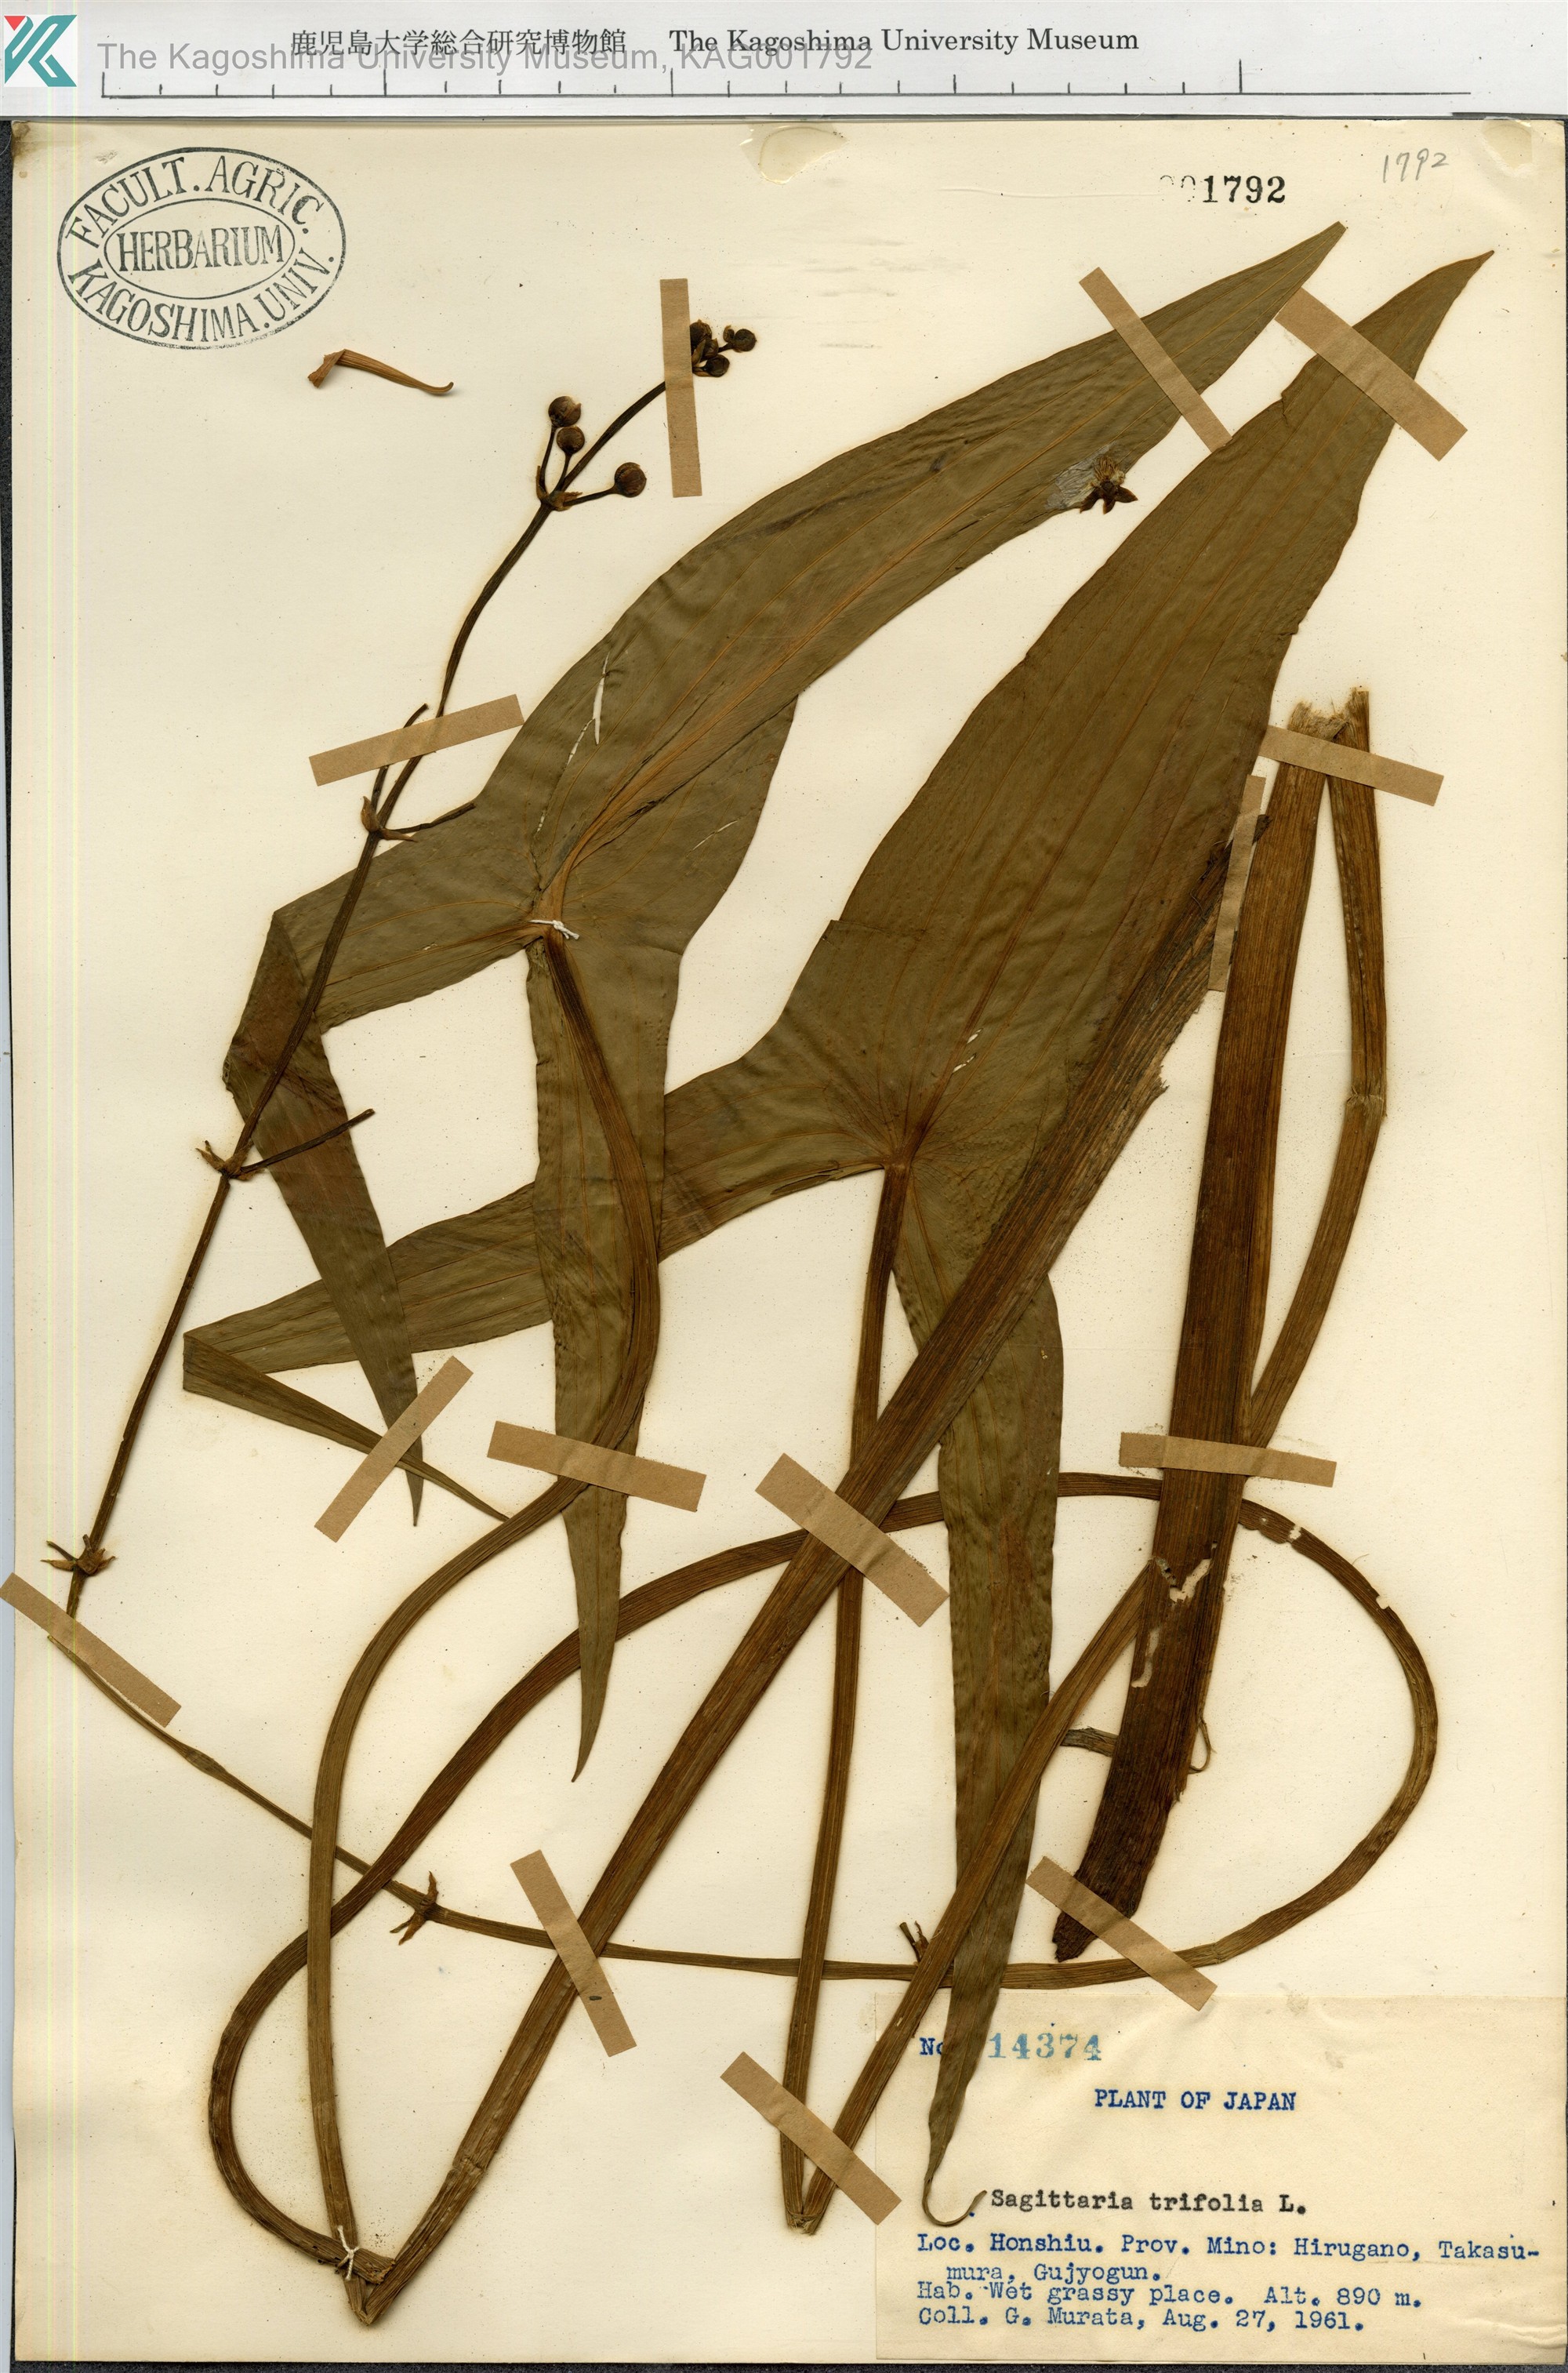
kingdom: Plantae
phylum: Tracheophyta
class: Liliopsida
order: Alismatales
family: Alismataceae
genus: Sagittaria
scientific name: Sagittaria trifolia
